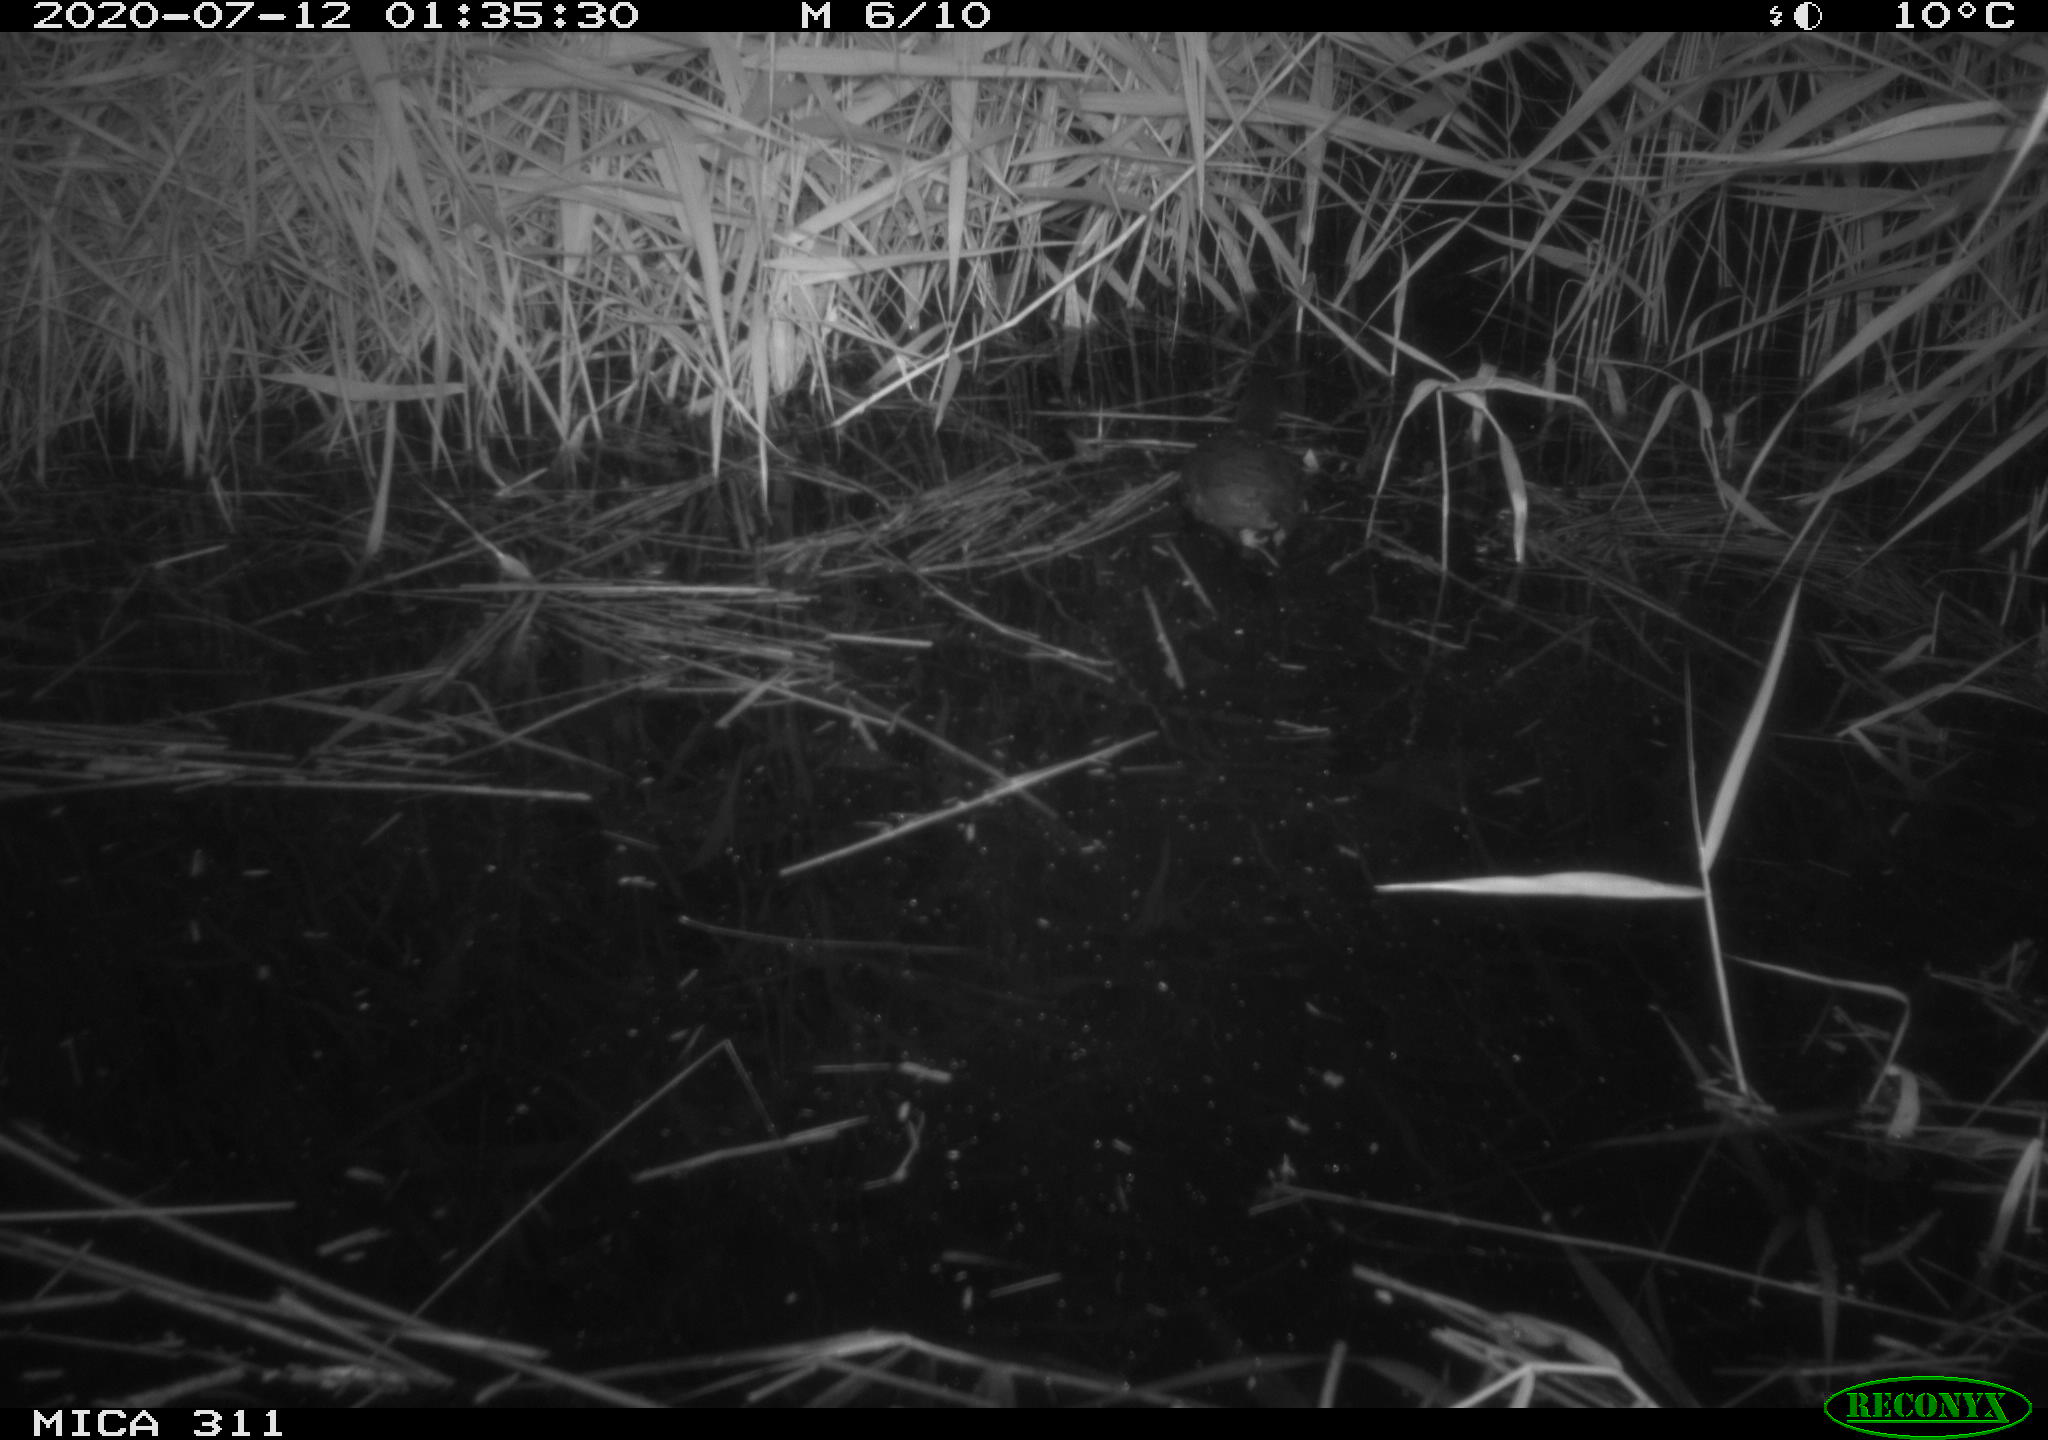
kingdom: Animalia
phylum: Chordata
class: Aves
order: Anseriformes
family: Anatidae
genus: Anas
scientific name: Anas platyrhynchos
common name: Mallard
